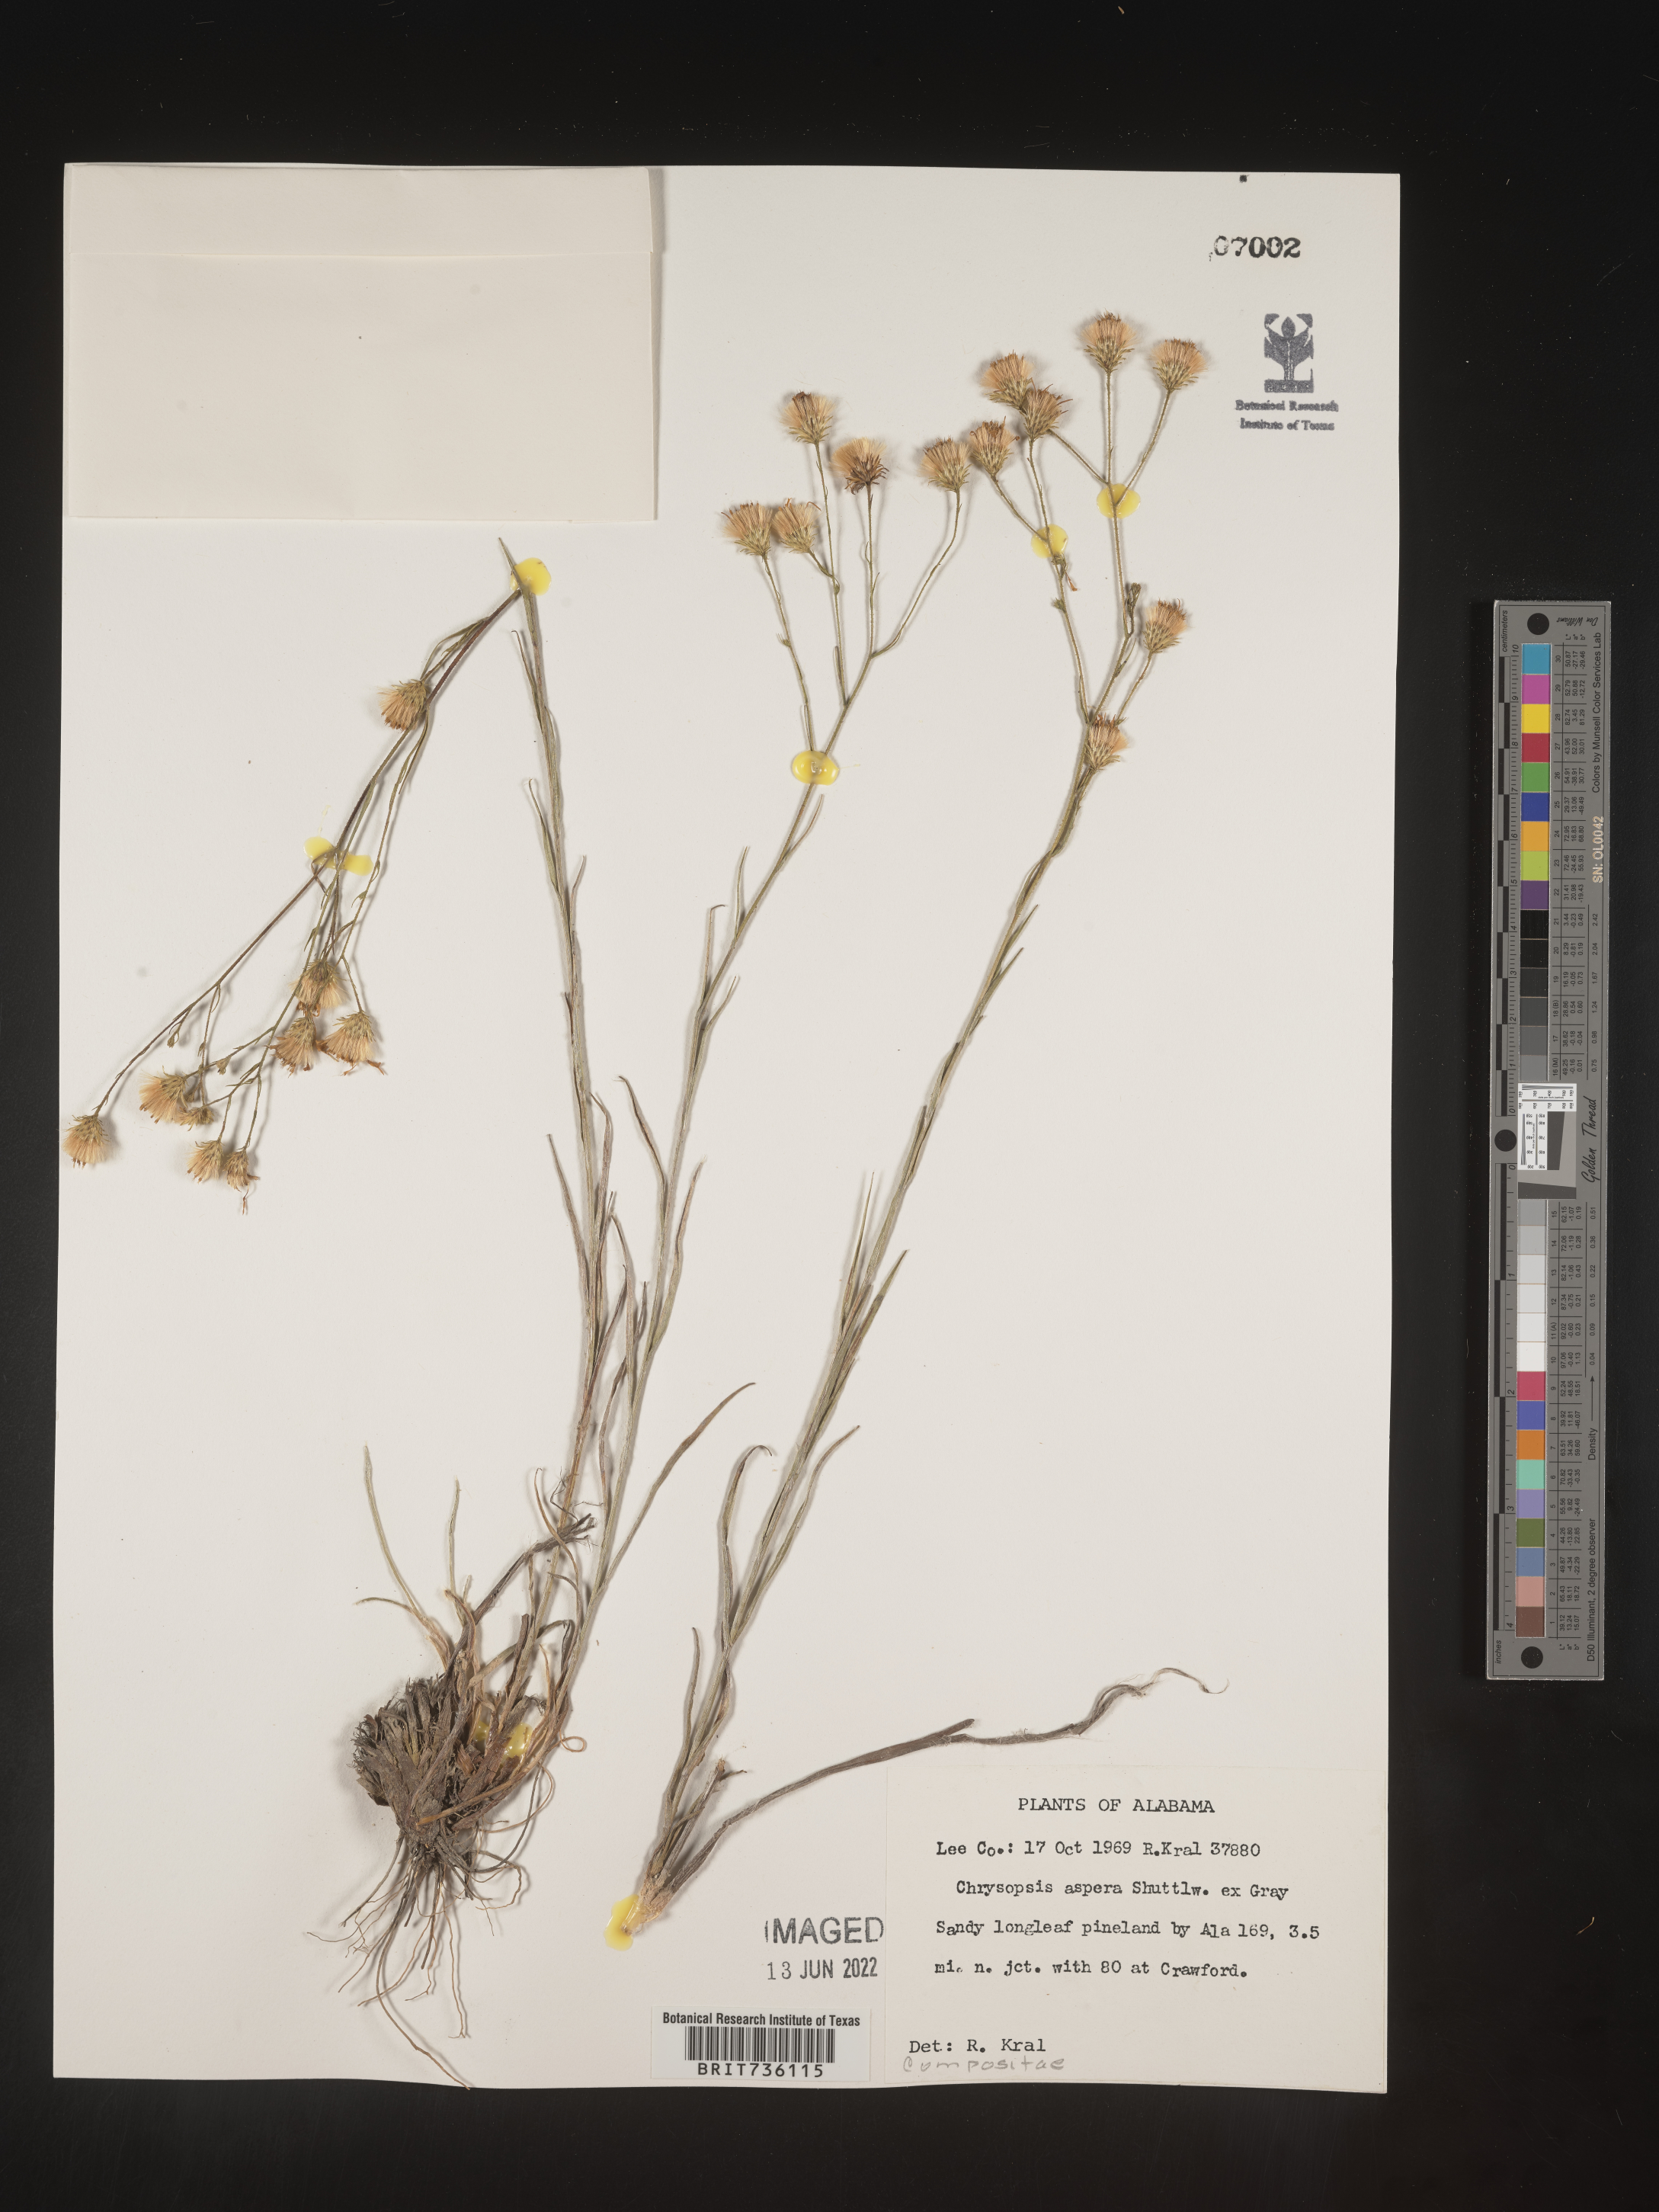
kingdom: Plantae
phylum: Tracheophyta
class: Magnoliopsida
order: Asterales
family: Asteraceae
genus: Pityopsis
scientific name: Pityopsis aspera
